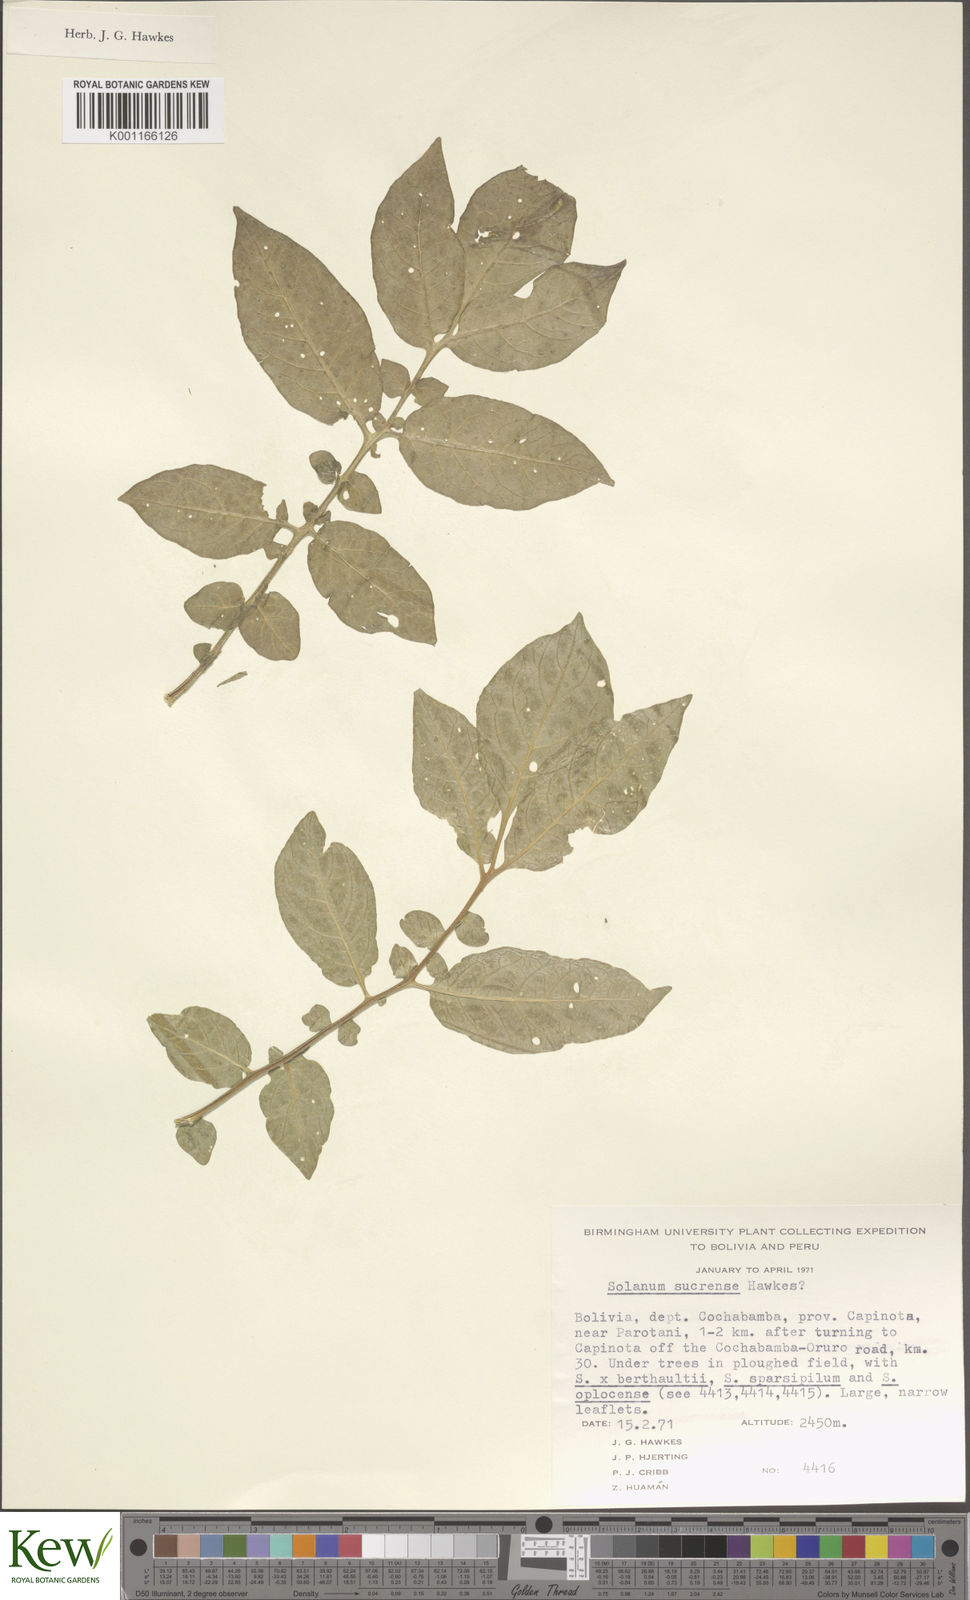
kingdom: Plantae
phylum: Tracheophyta
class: Magnoliopsida
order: Solanales
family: Solanaceae
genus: Solanum
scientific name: Solanum brevicaule
